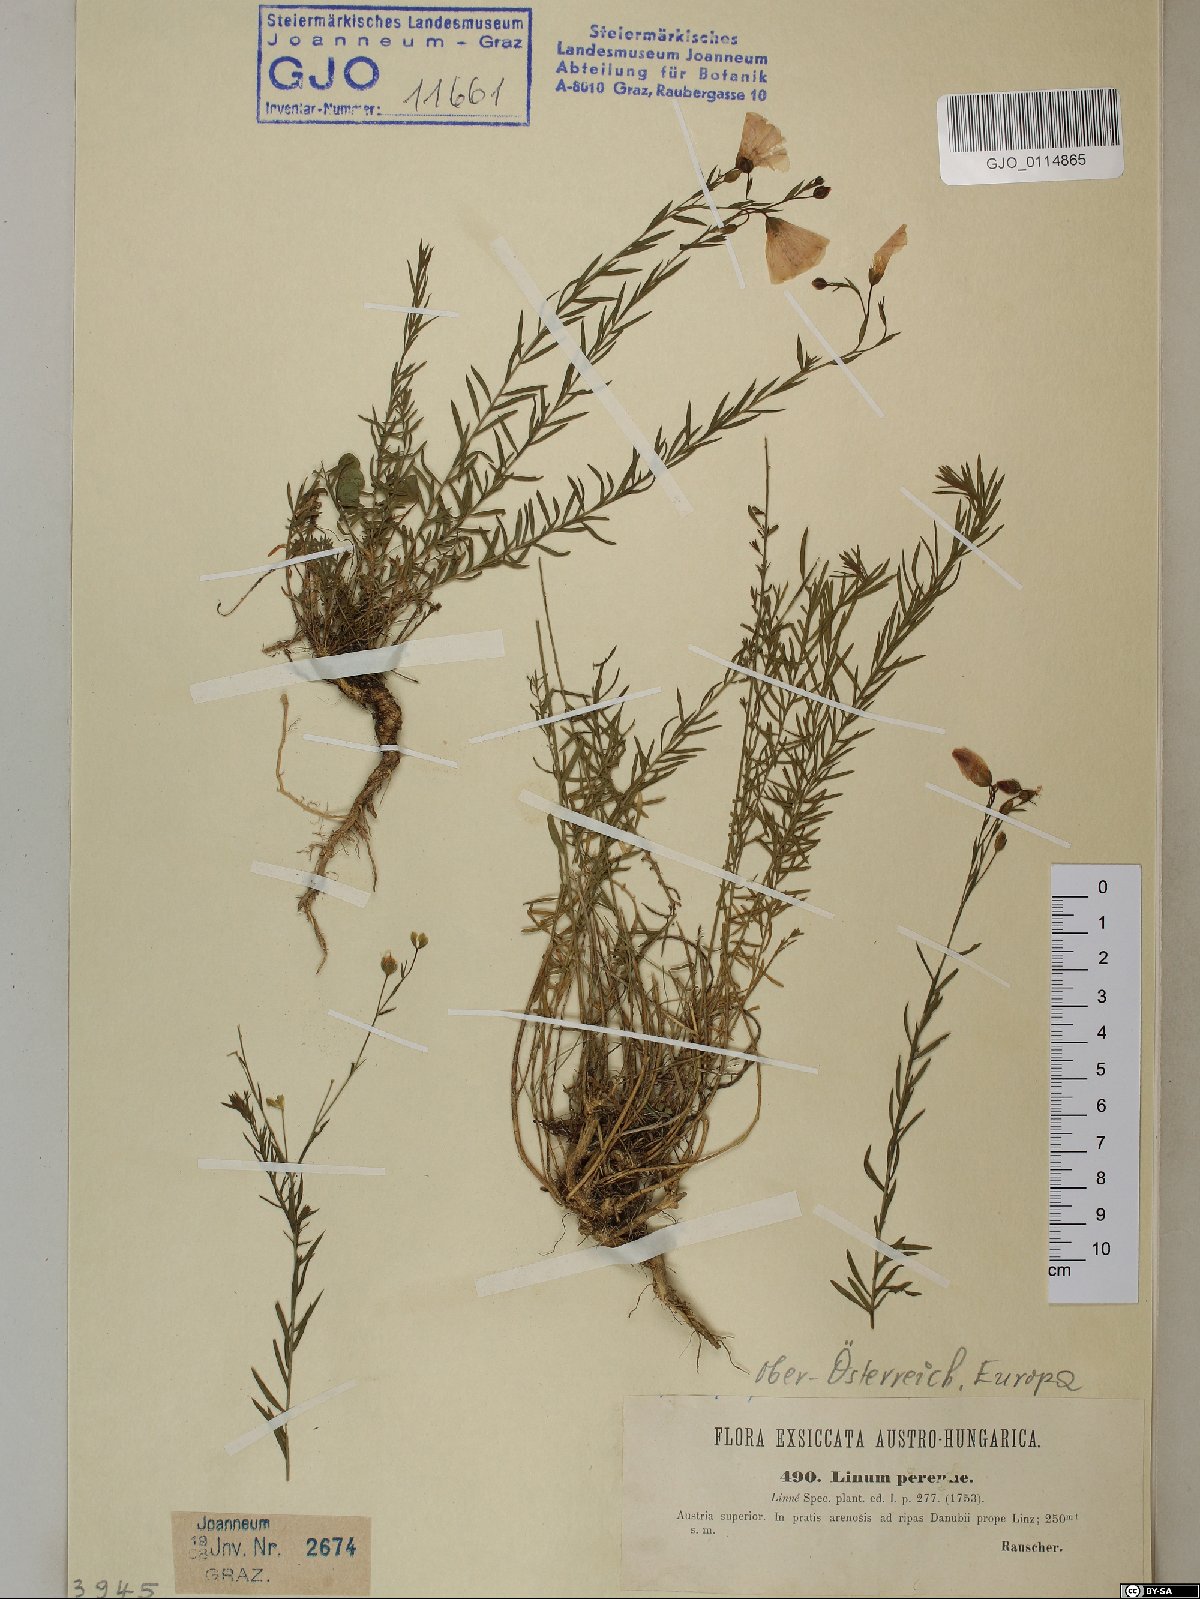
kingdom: Plantae
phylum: Tracheophyta
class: Magnoliopsida
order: Malpighiales
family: Linaceae
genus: Linum
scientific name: Linum perenne
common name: Blue flax
